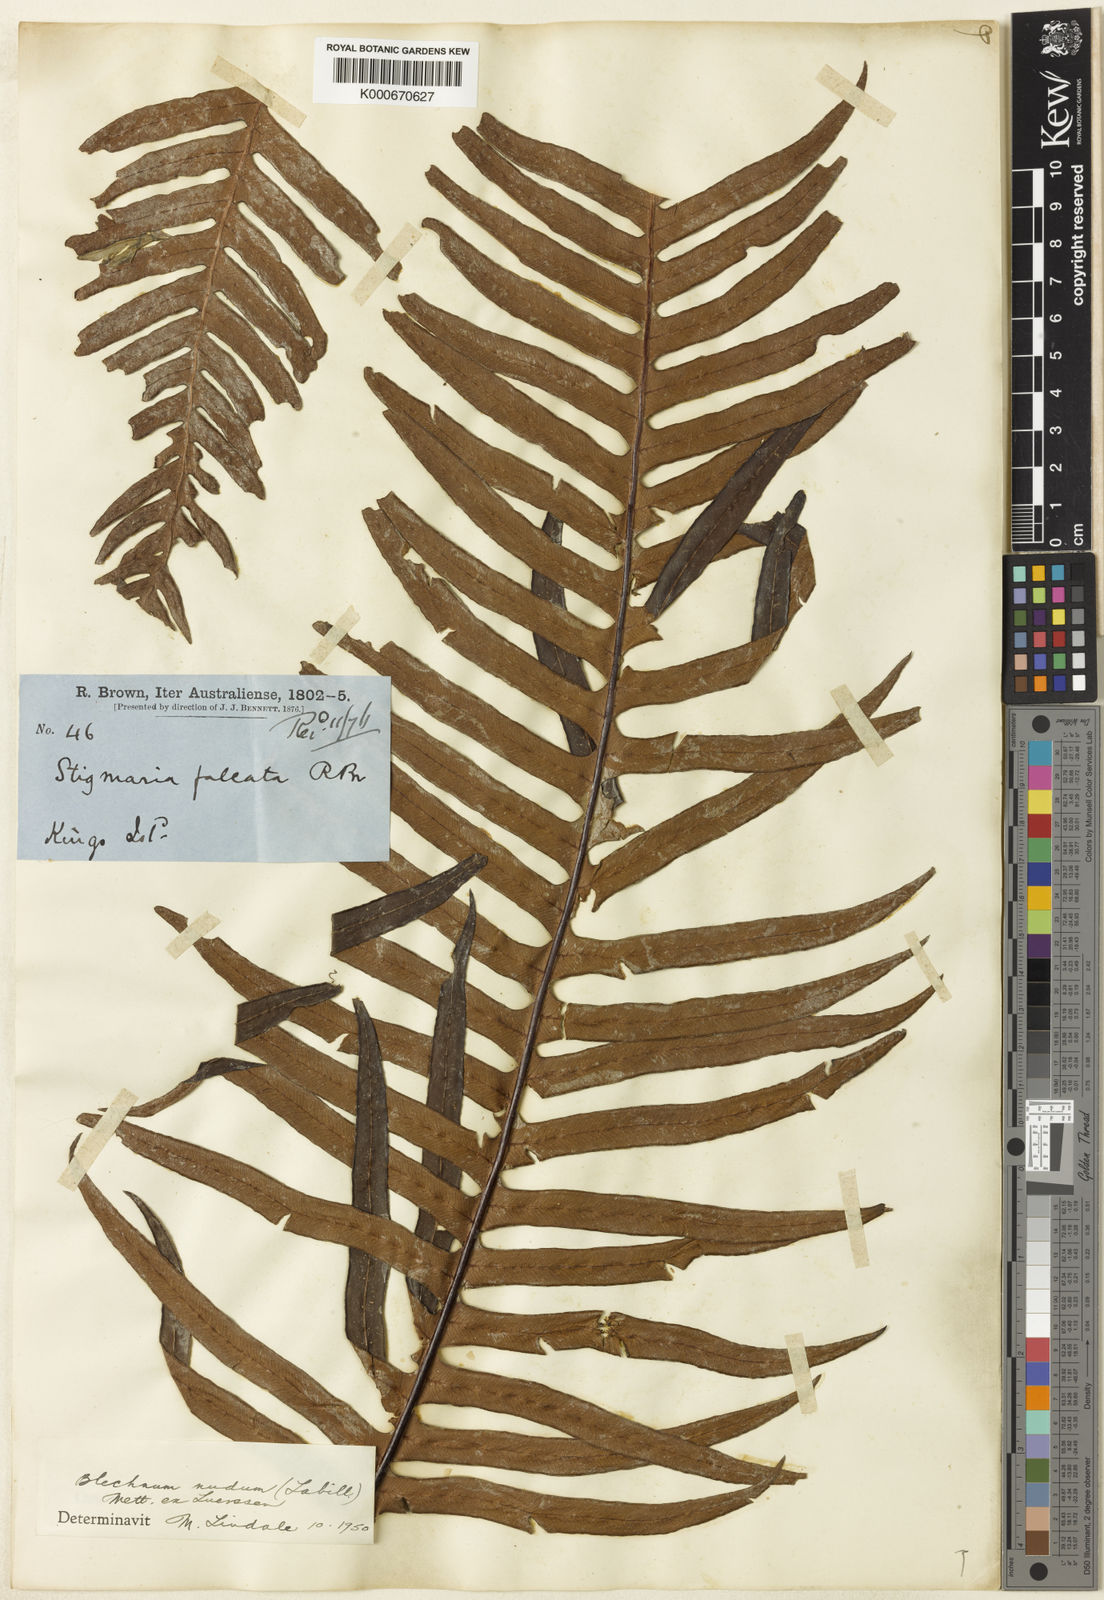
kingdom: Plantae
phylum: Tracheophyta
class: Polypodiopsida
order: Polypodiales
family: Blechnaceae
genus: Blechnum
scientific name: Blechnum
